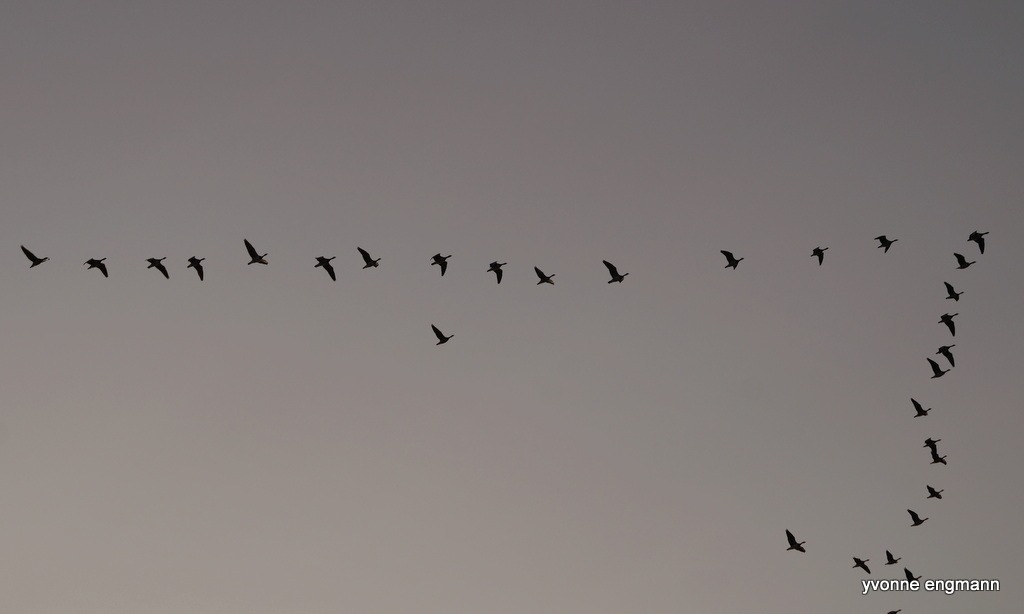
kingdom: Animalia
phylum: Chordata
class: Aves
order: Anseriformes
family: Anatidae
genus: Anser
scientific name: Anser anser
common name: Grågås
